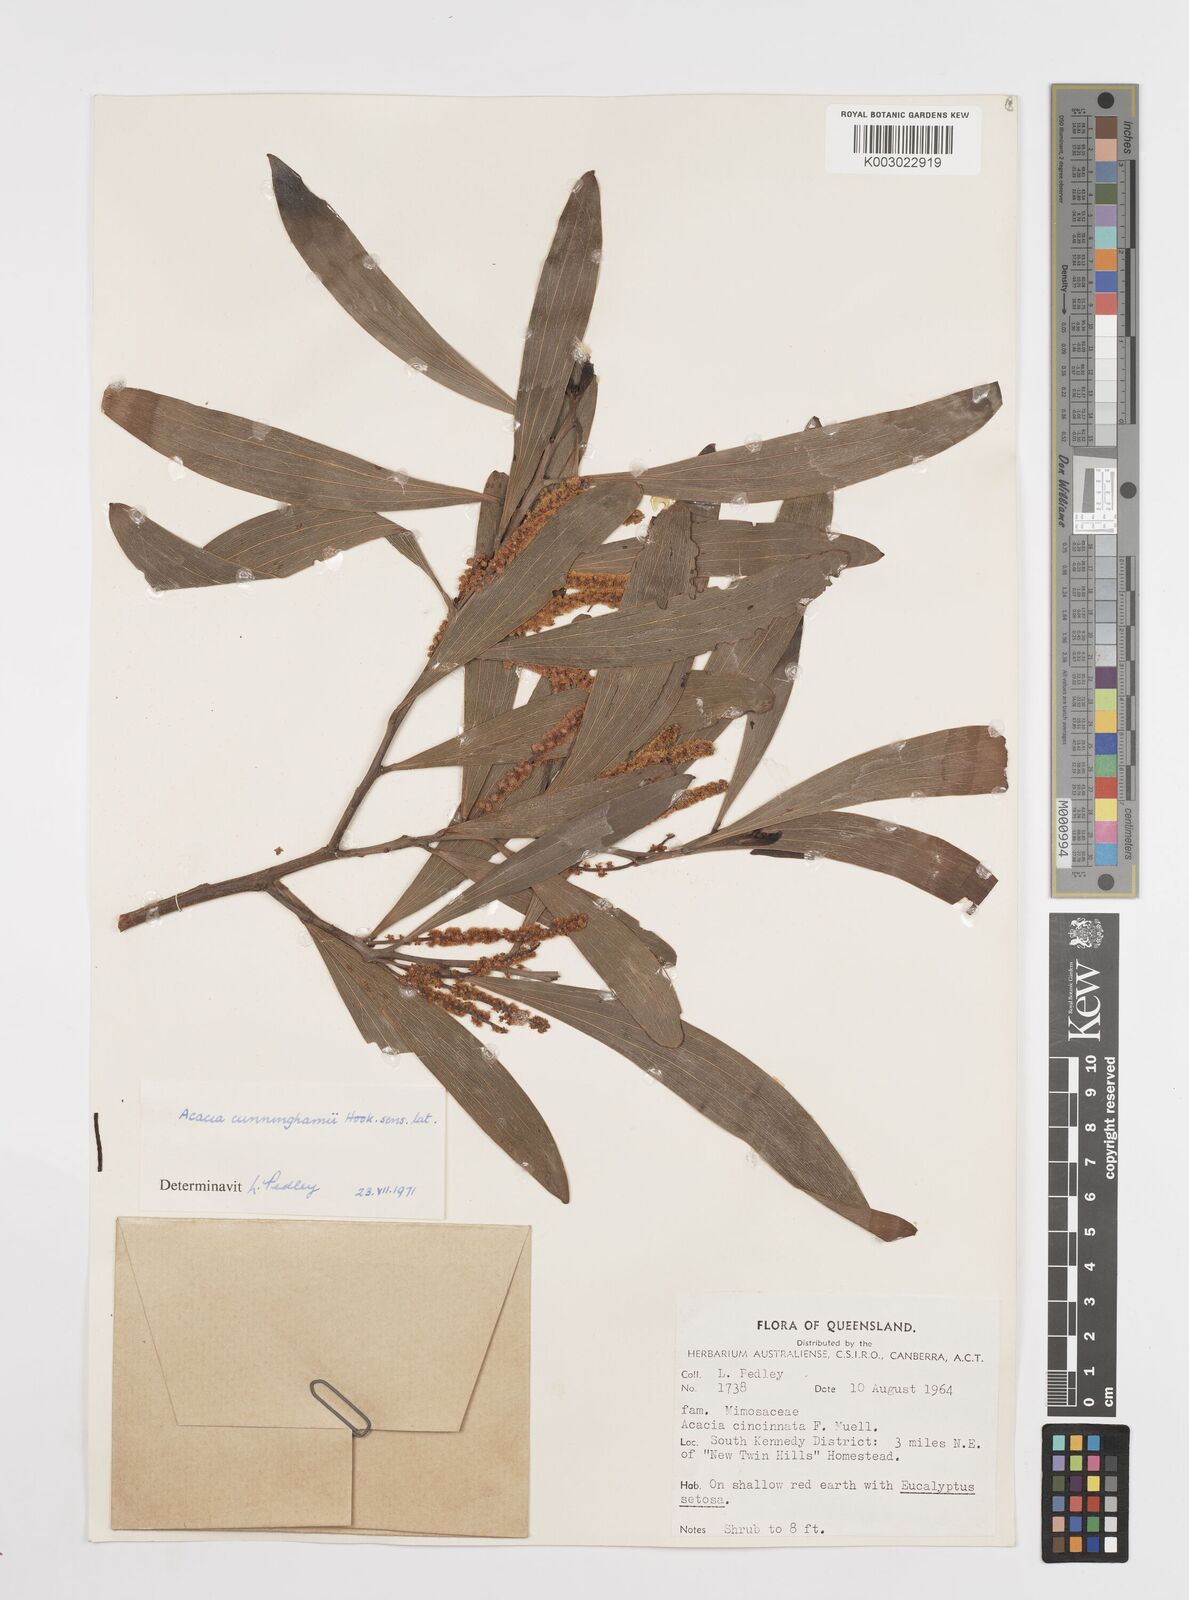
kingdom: Plantae
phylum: Tracheophyta
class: Magnoliopsida
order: Fabales
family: Fabaceae
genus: Acacia
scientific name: Acacia longispicata
